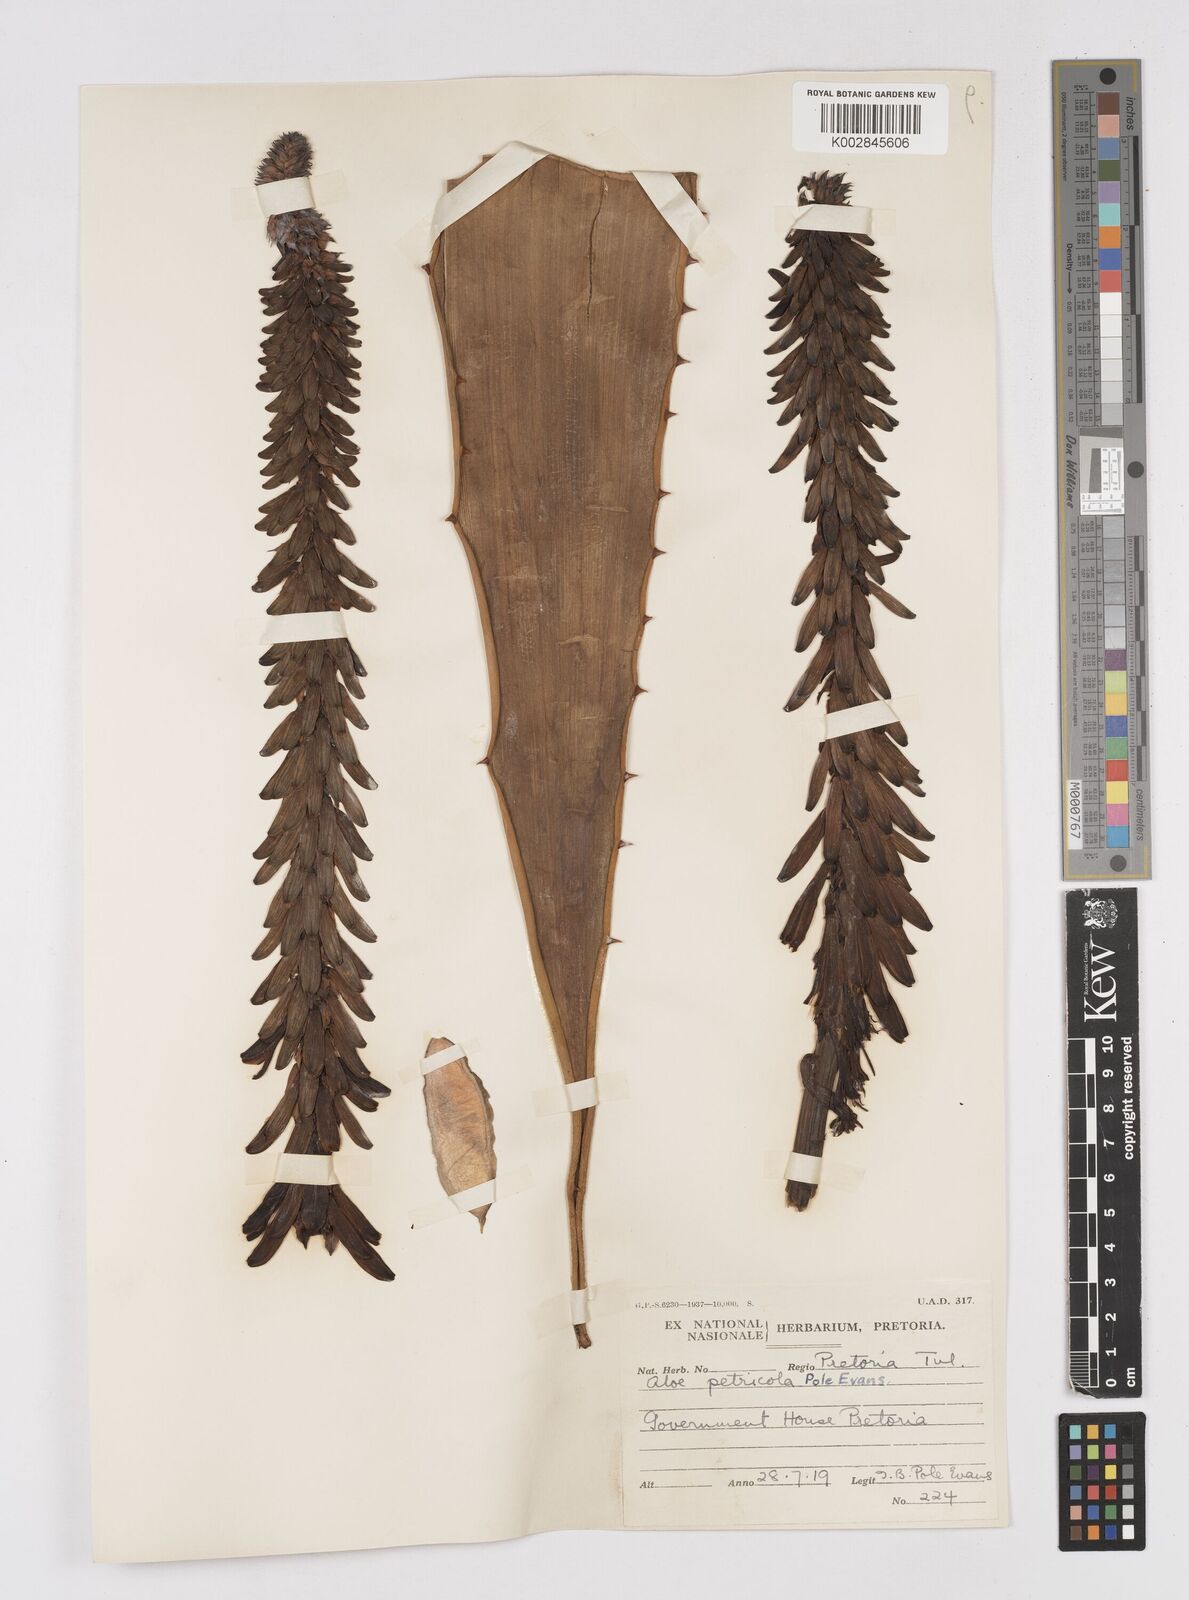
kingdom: Plantae
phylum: Tracheophyta
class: Liliopsida
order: Asparagales
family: Asphodelaceae
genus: Aloe
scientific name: Aloe
